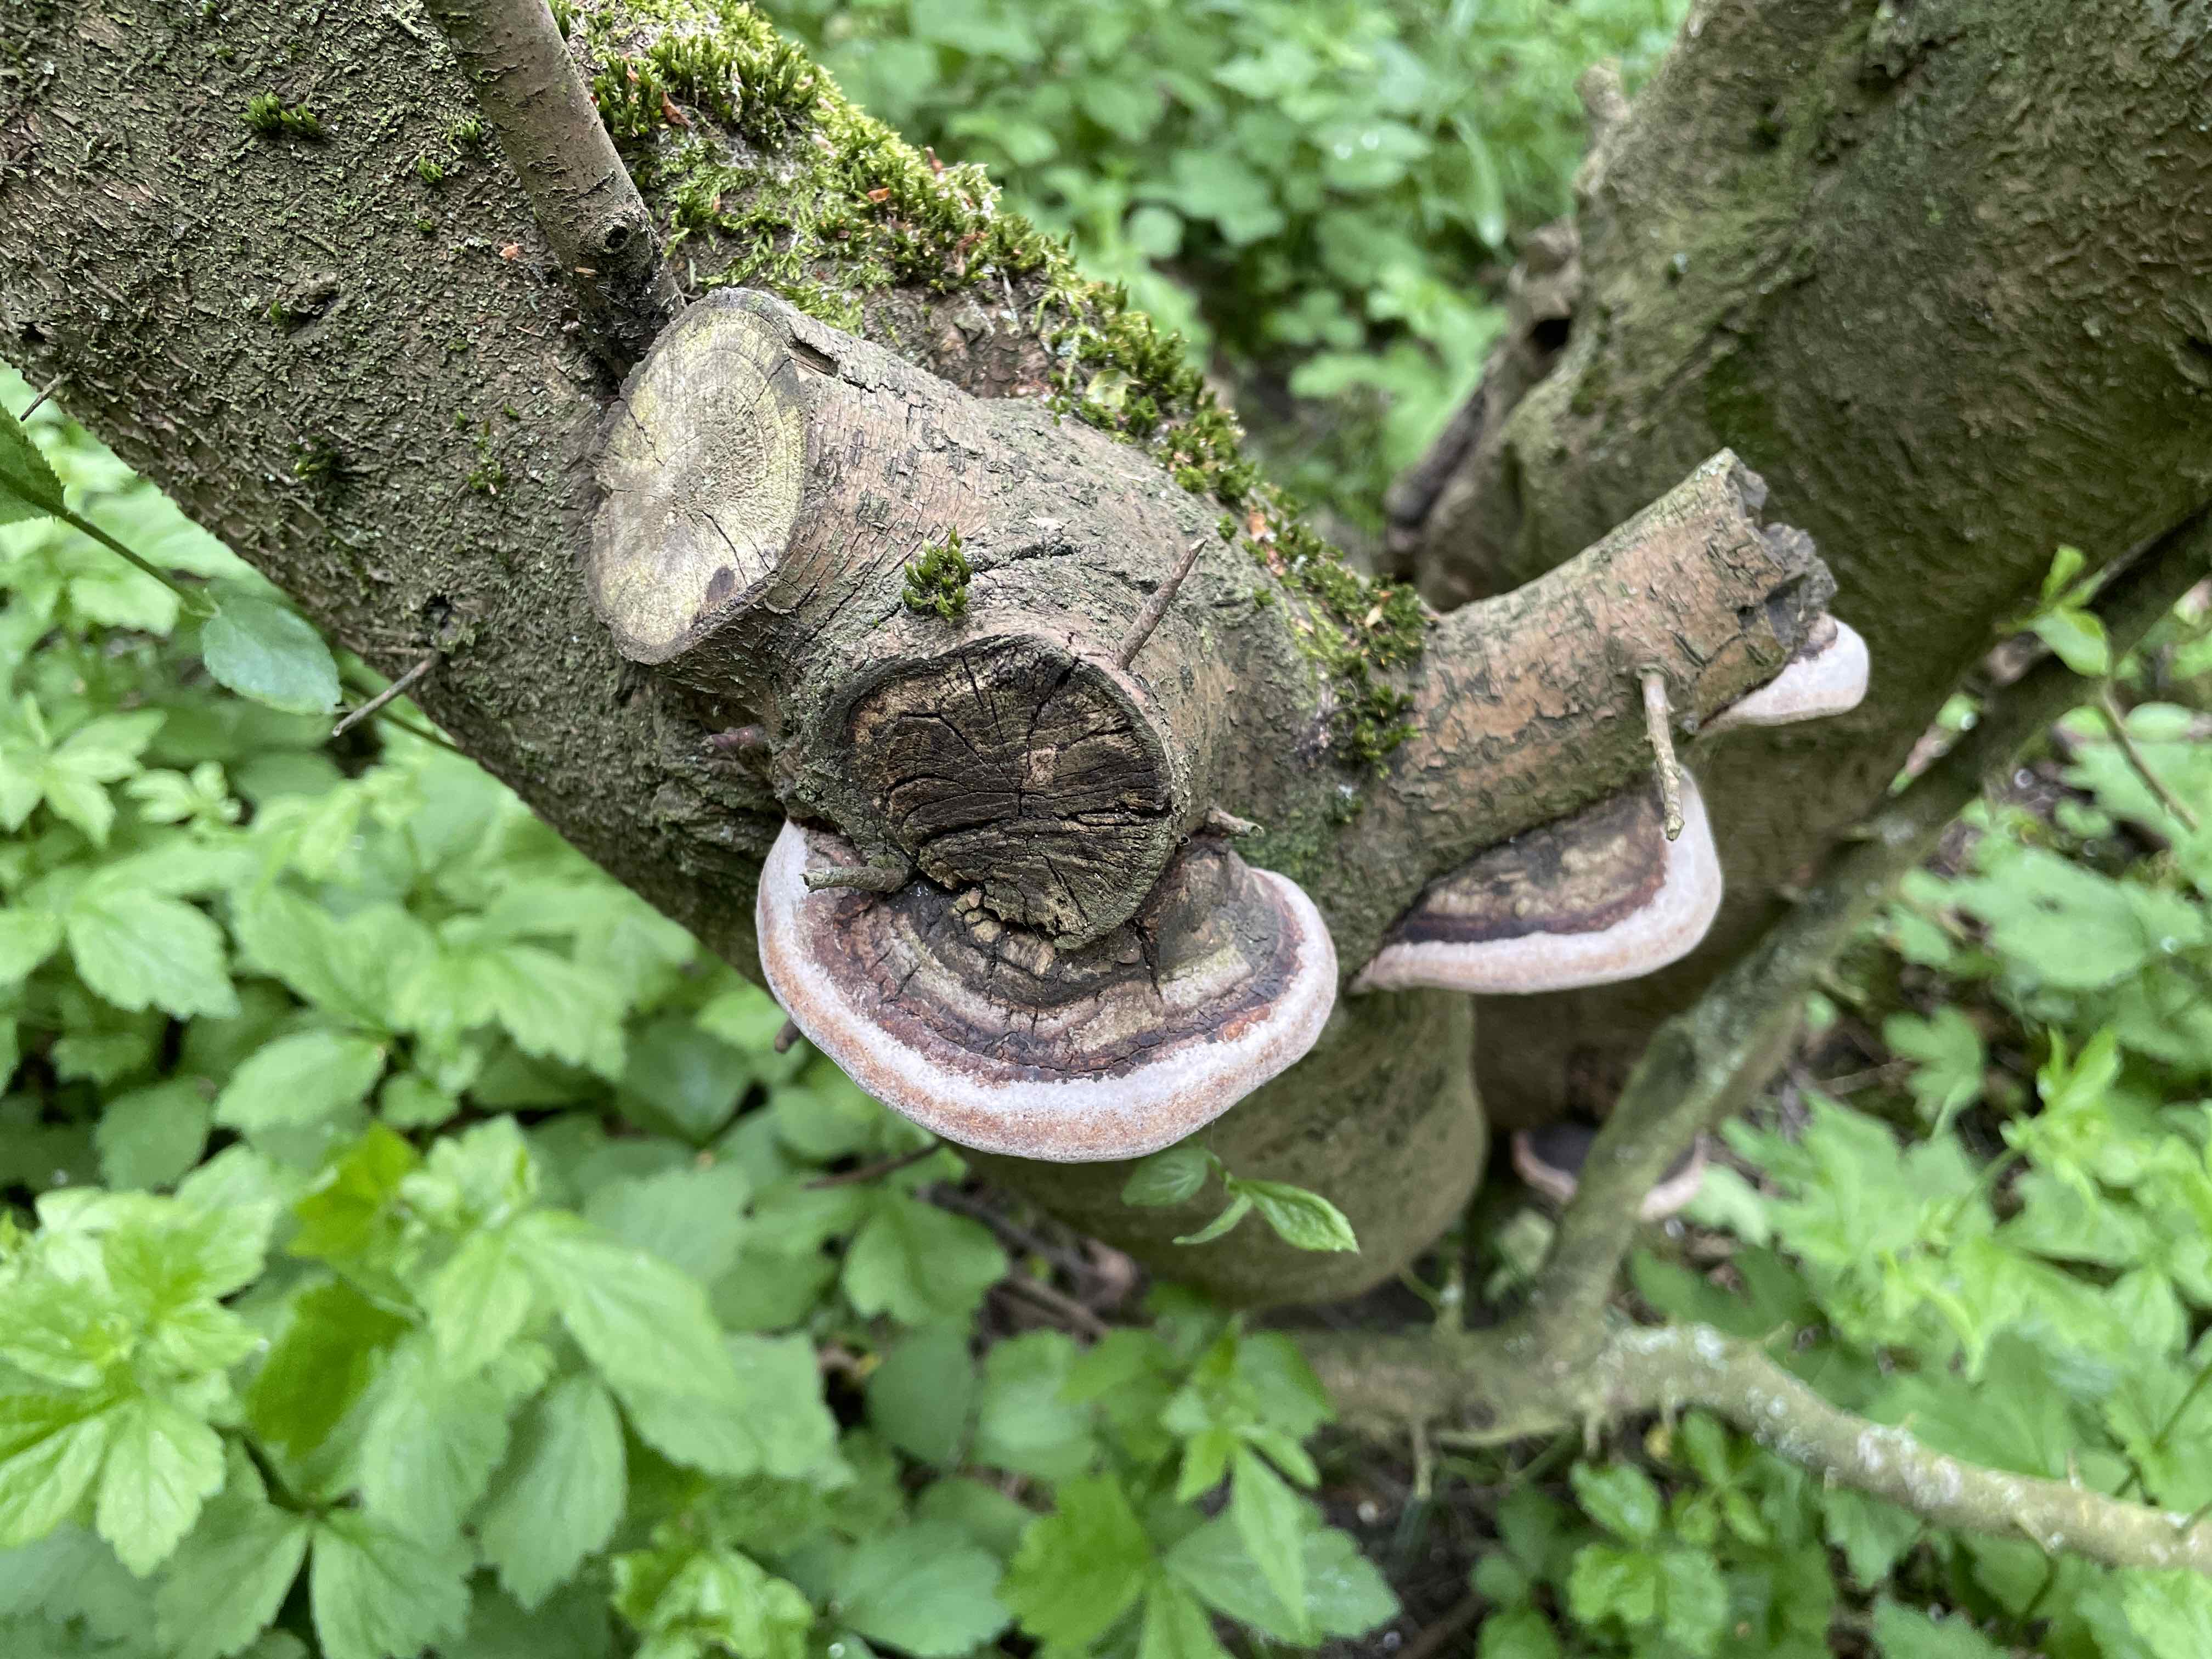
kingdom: Fungi
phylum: Basidiomycota
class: Agaricomycetes
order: Hymenochaetales
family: Hymenochaetaceae
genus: Phellinus
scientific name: Phellinus pomaceus
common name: blomme-ildporesvamp
